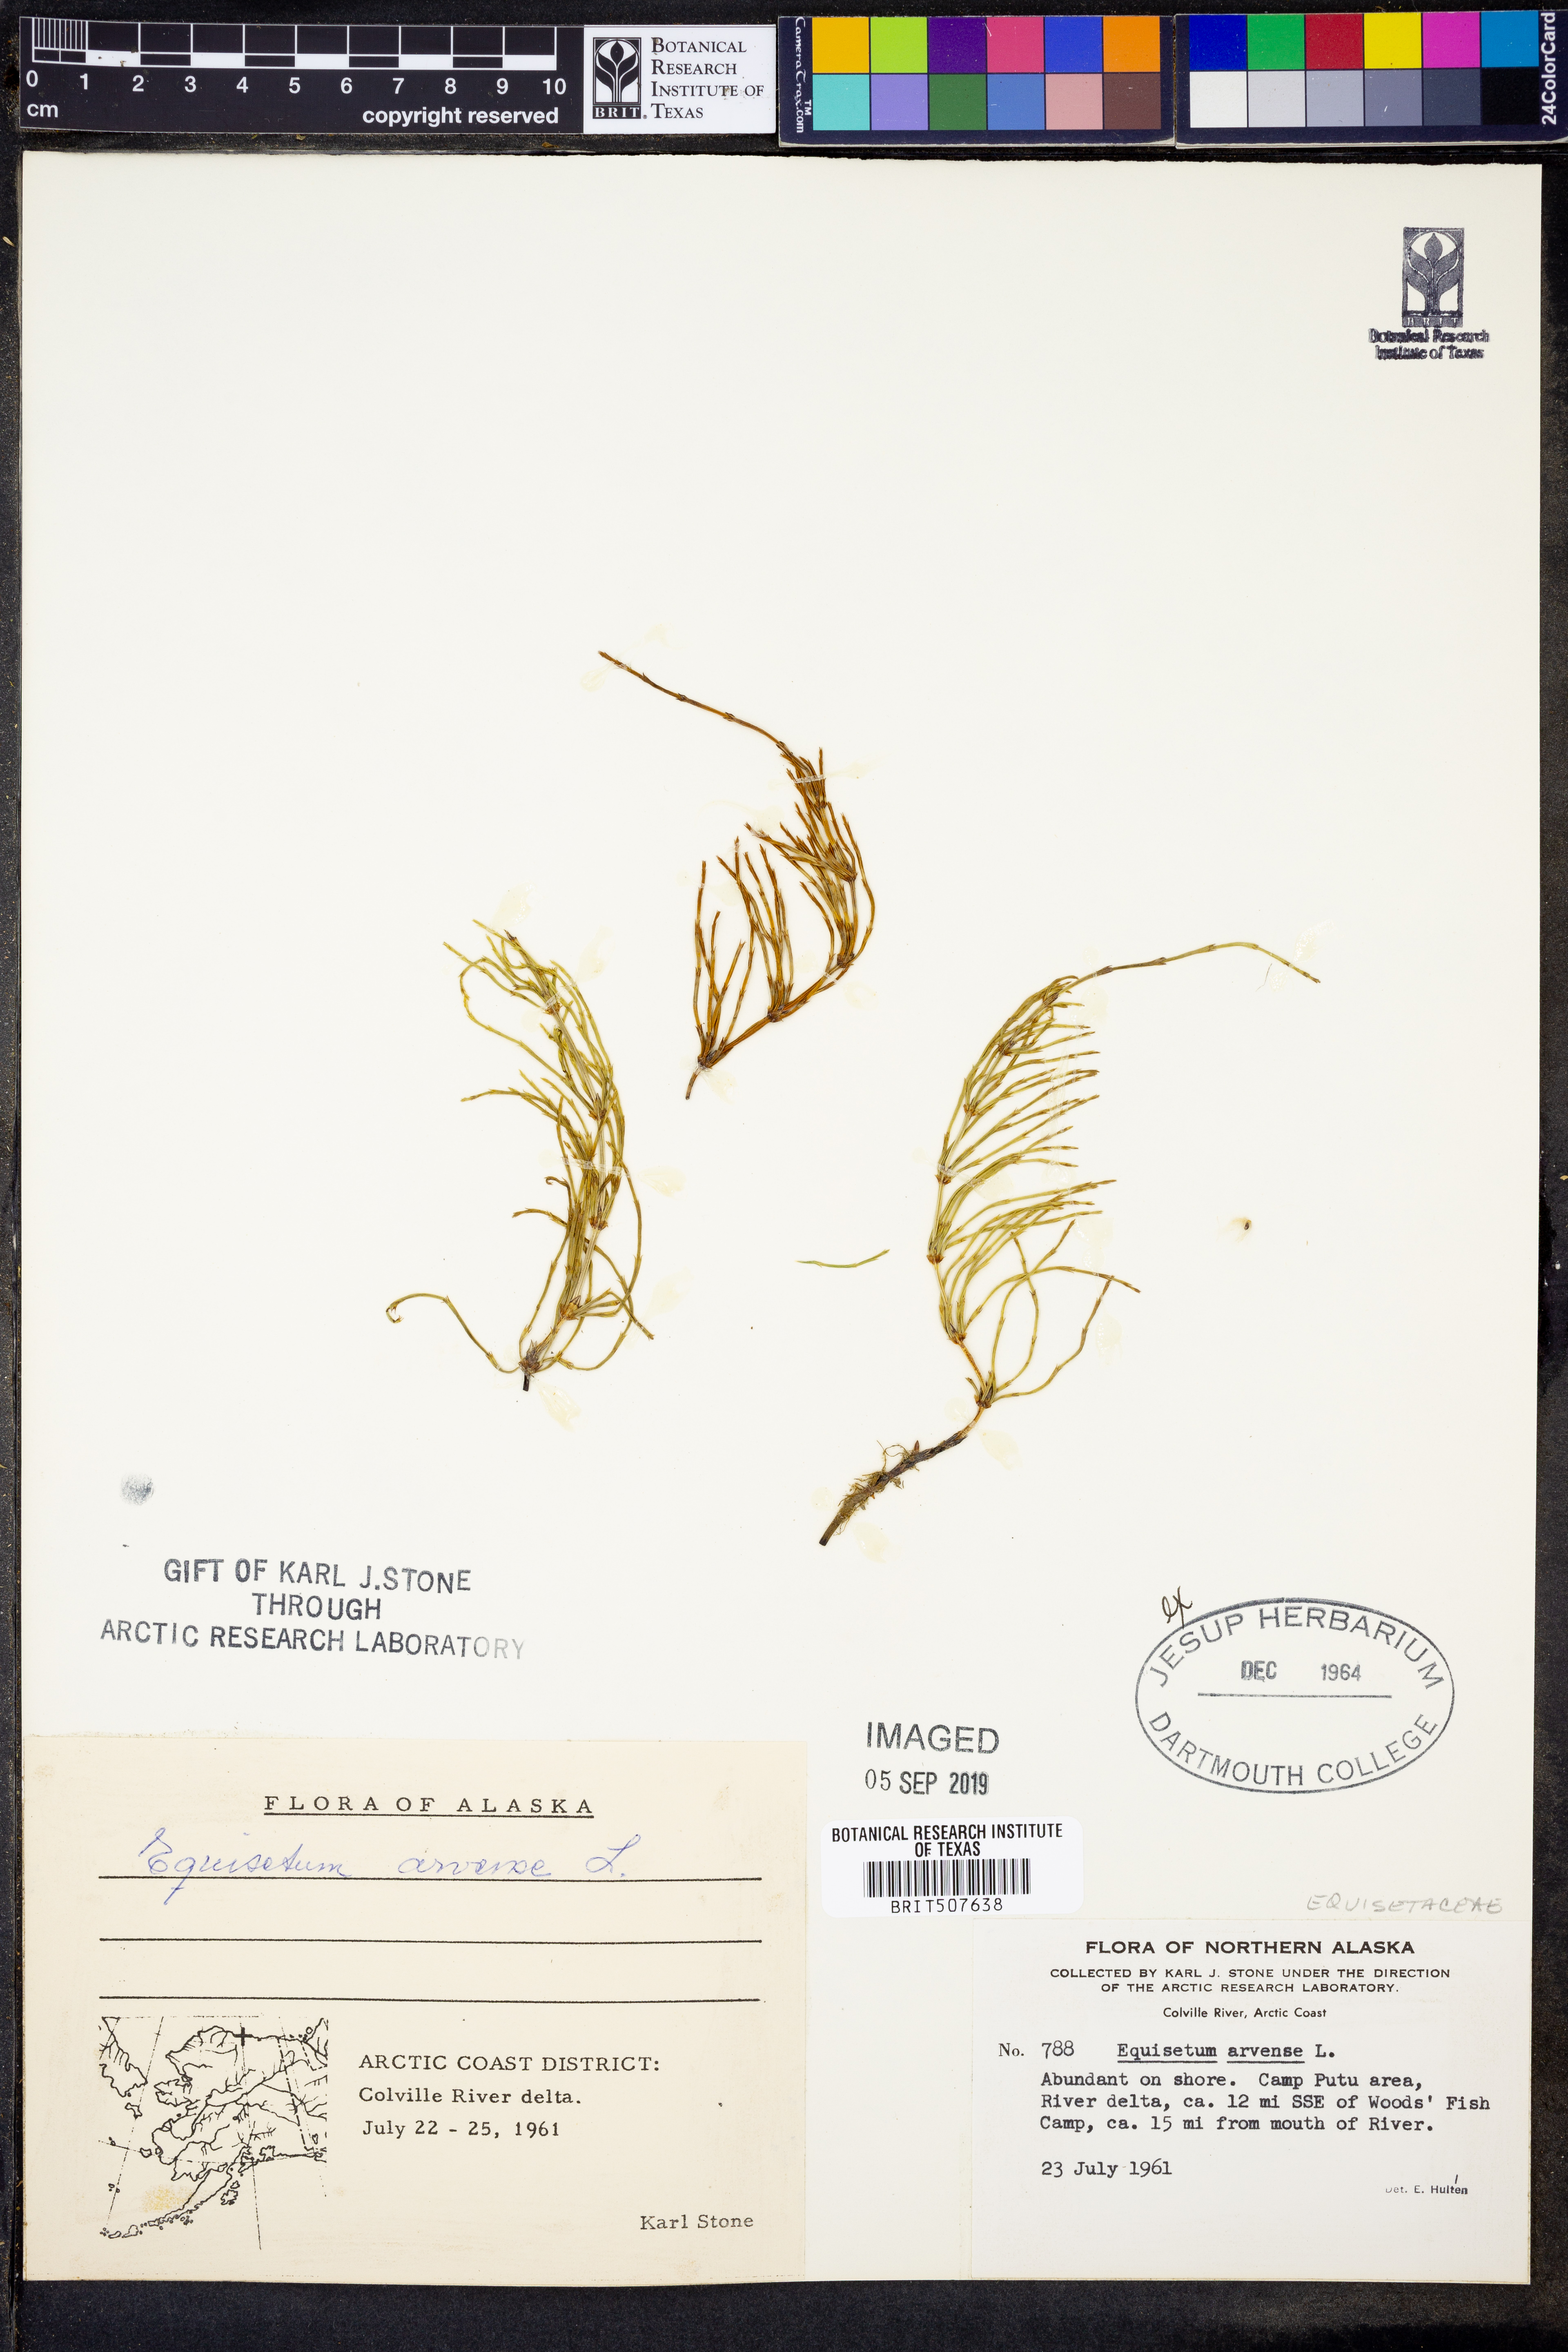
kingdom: Plantae
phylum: Tracheophyta
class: Polypodiopsida
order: Equisetales
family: Equisetaceae
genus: Equisetum
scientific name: Equisetum arvense
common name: Field horsetail
